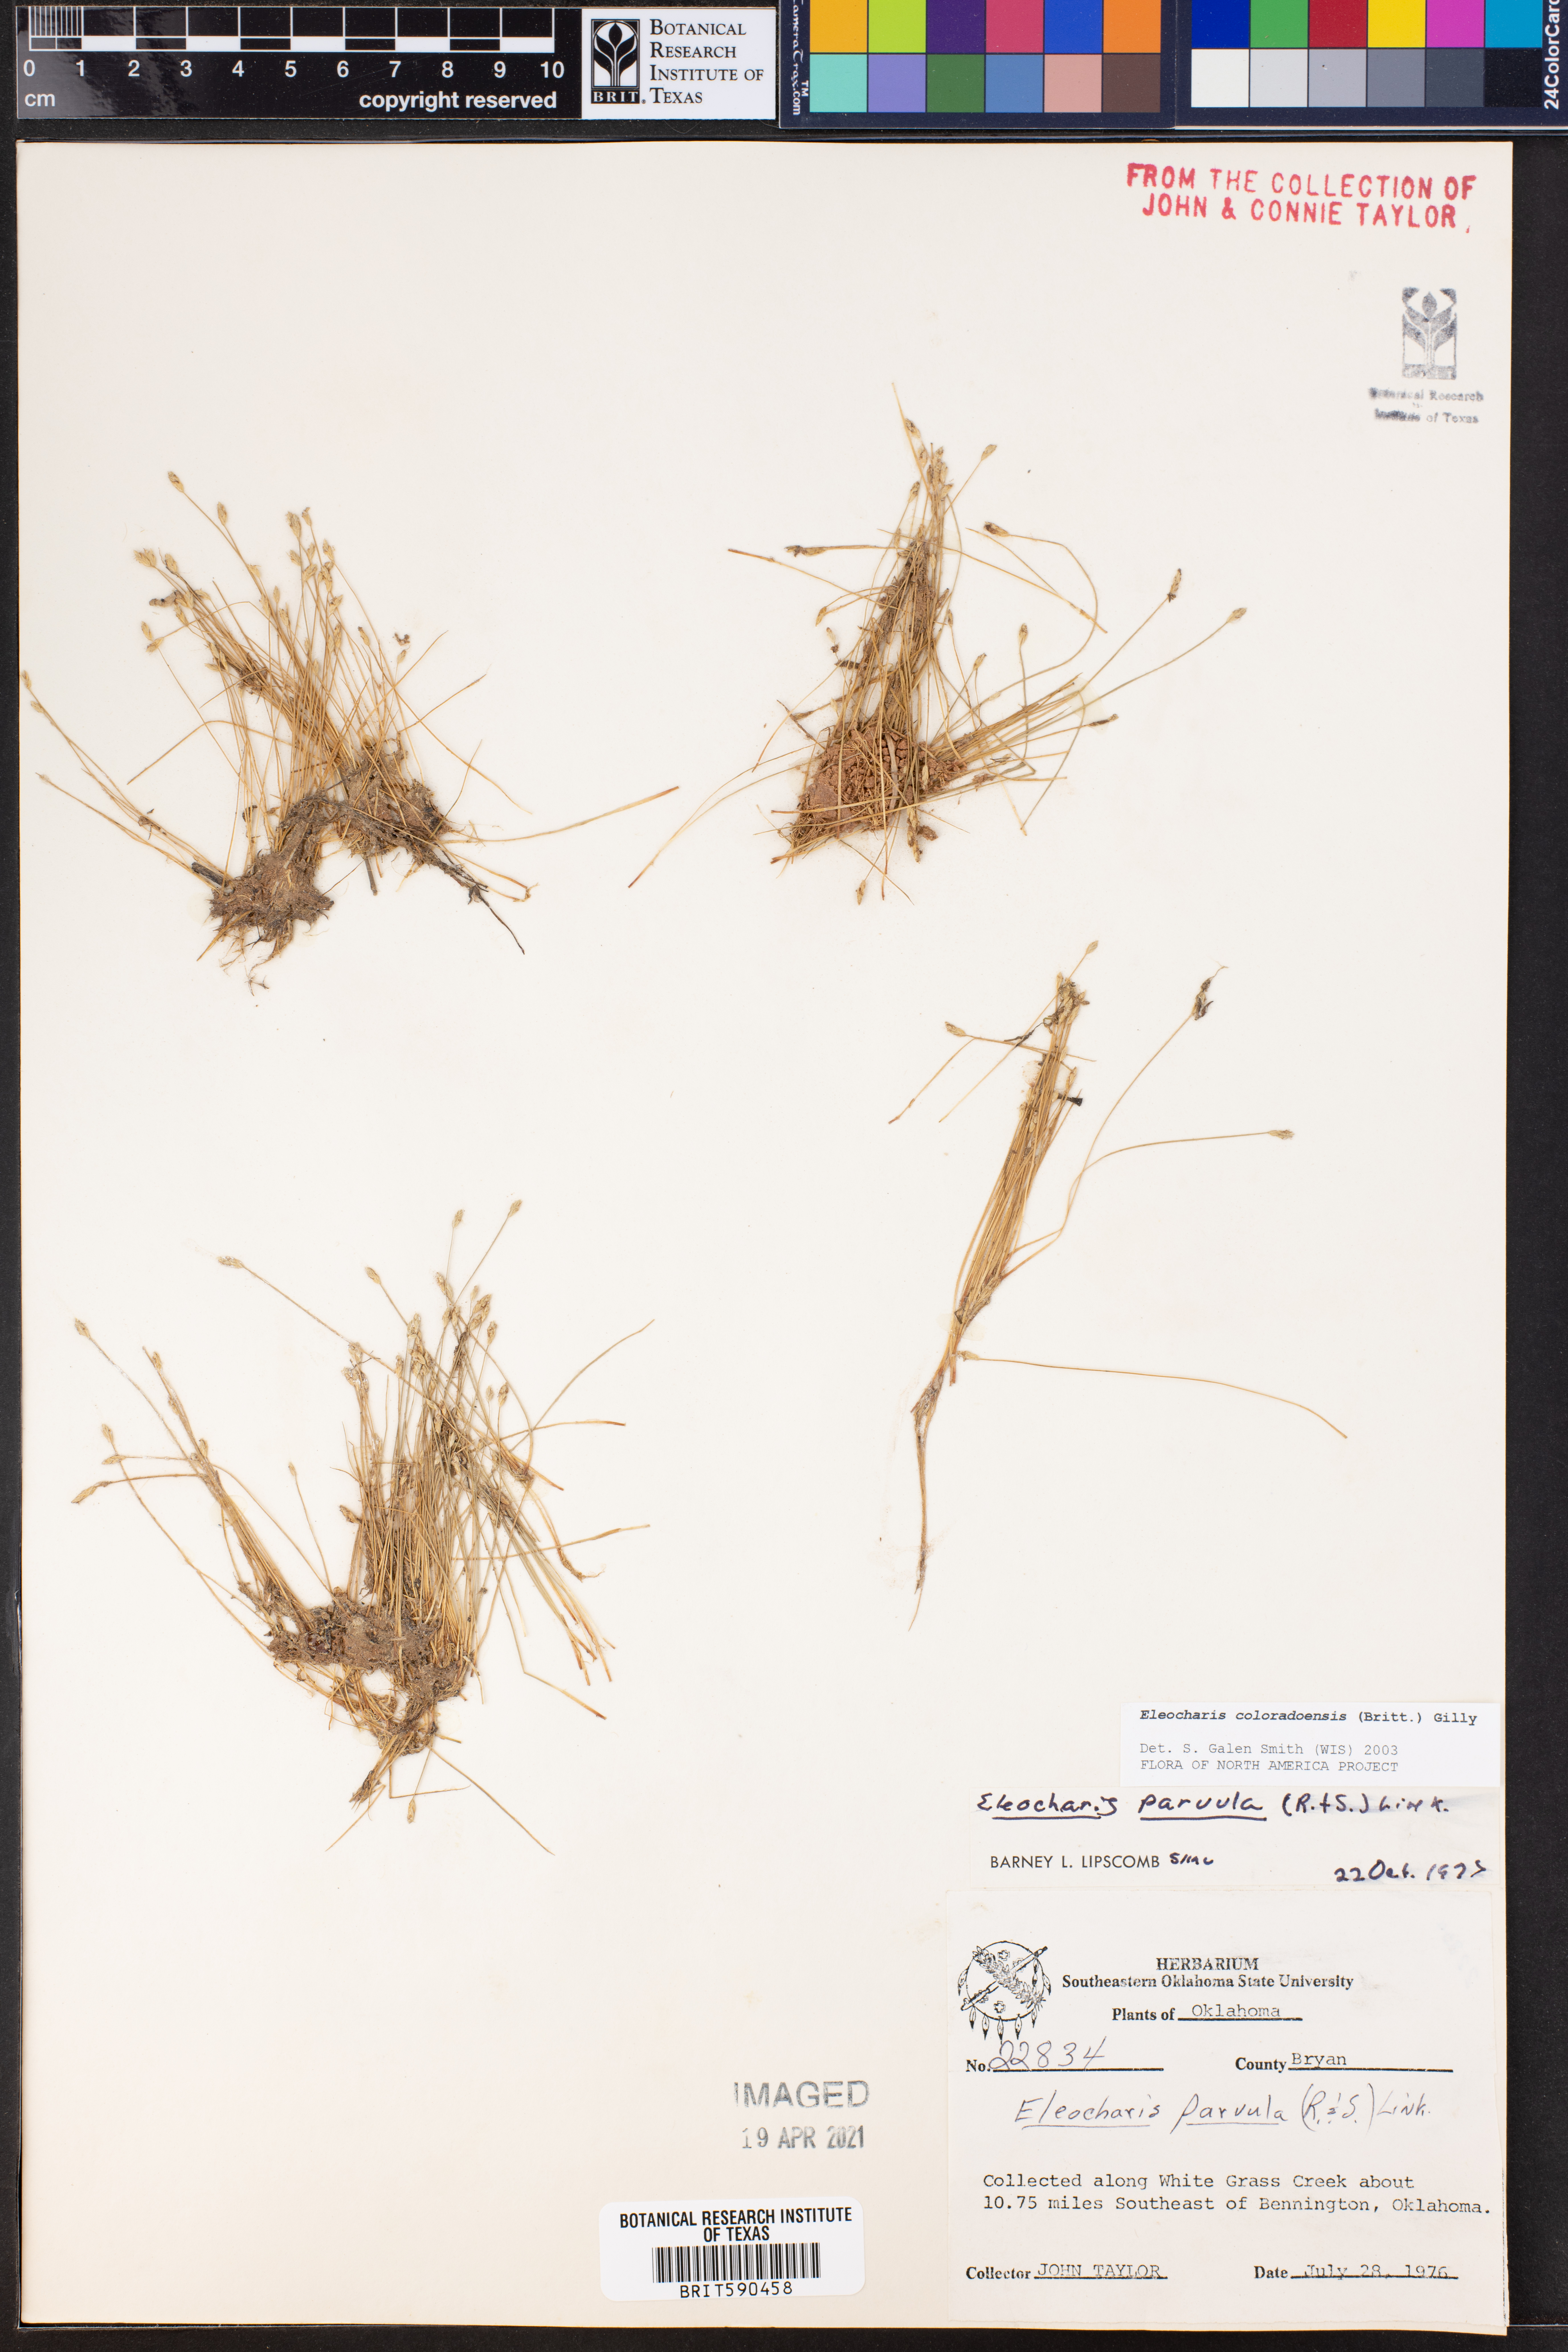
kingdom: Plantae
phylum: Tracheophyta
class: Liliopsida
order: Poales
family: Cyperaceae
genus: Eleocharis
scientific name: Eleocharis coloradoensis
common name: Colorado spikerush
